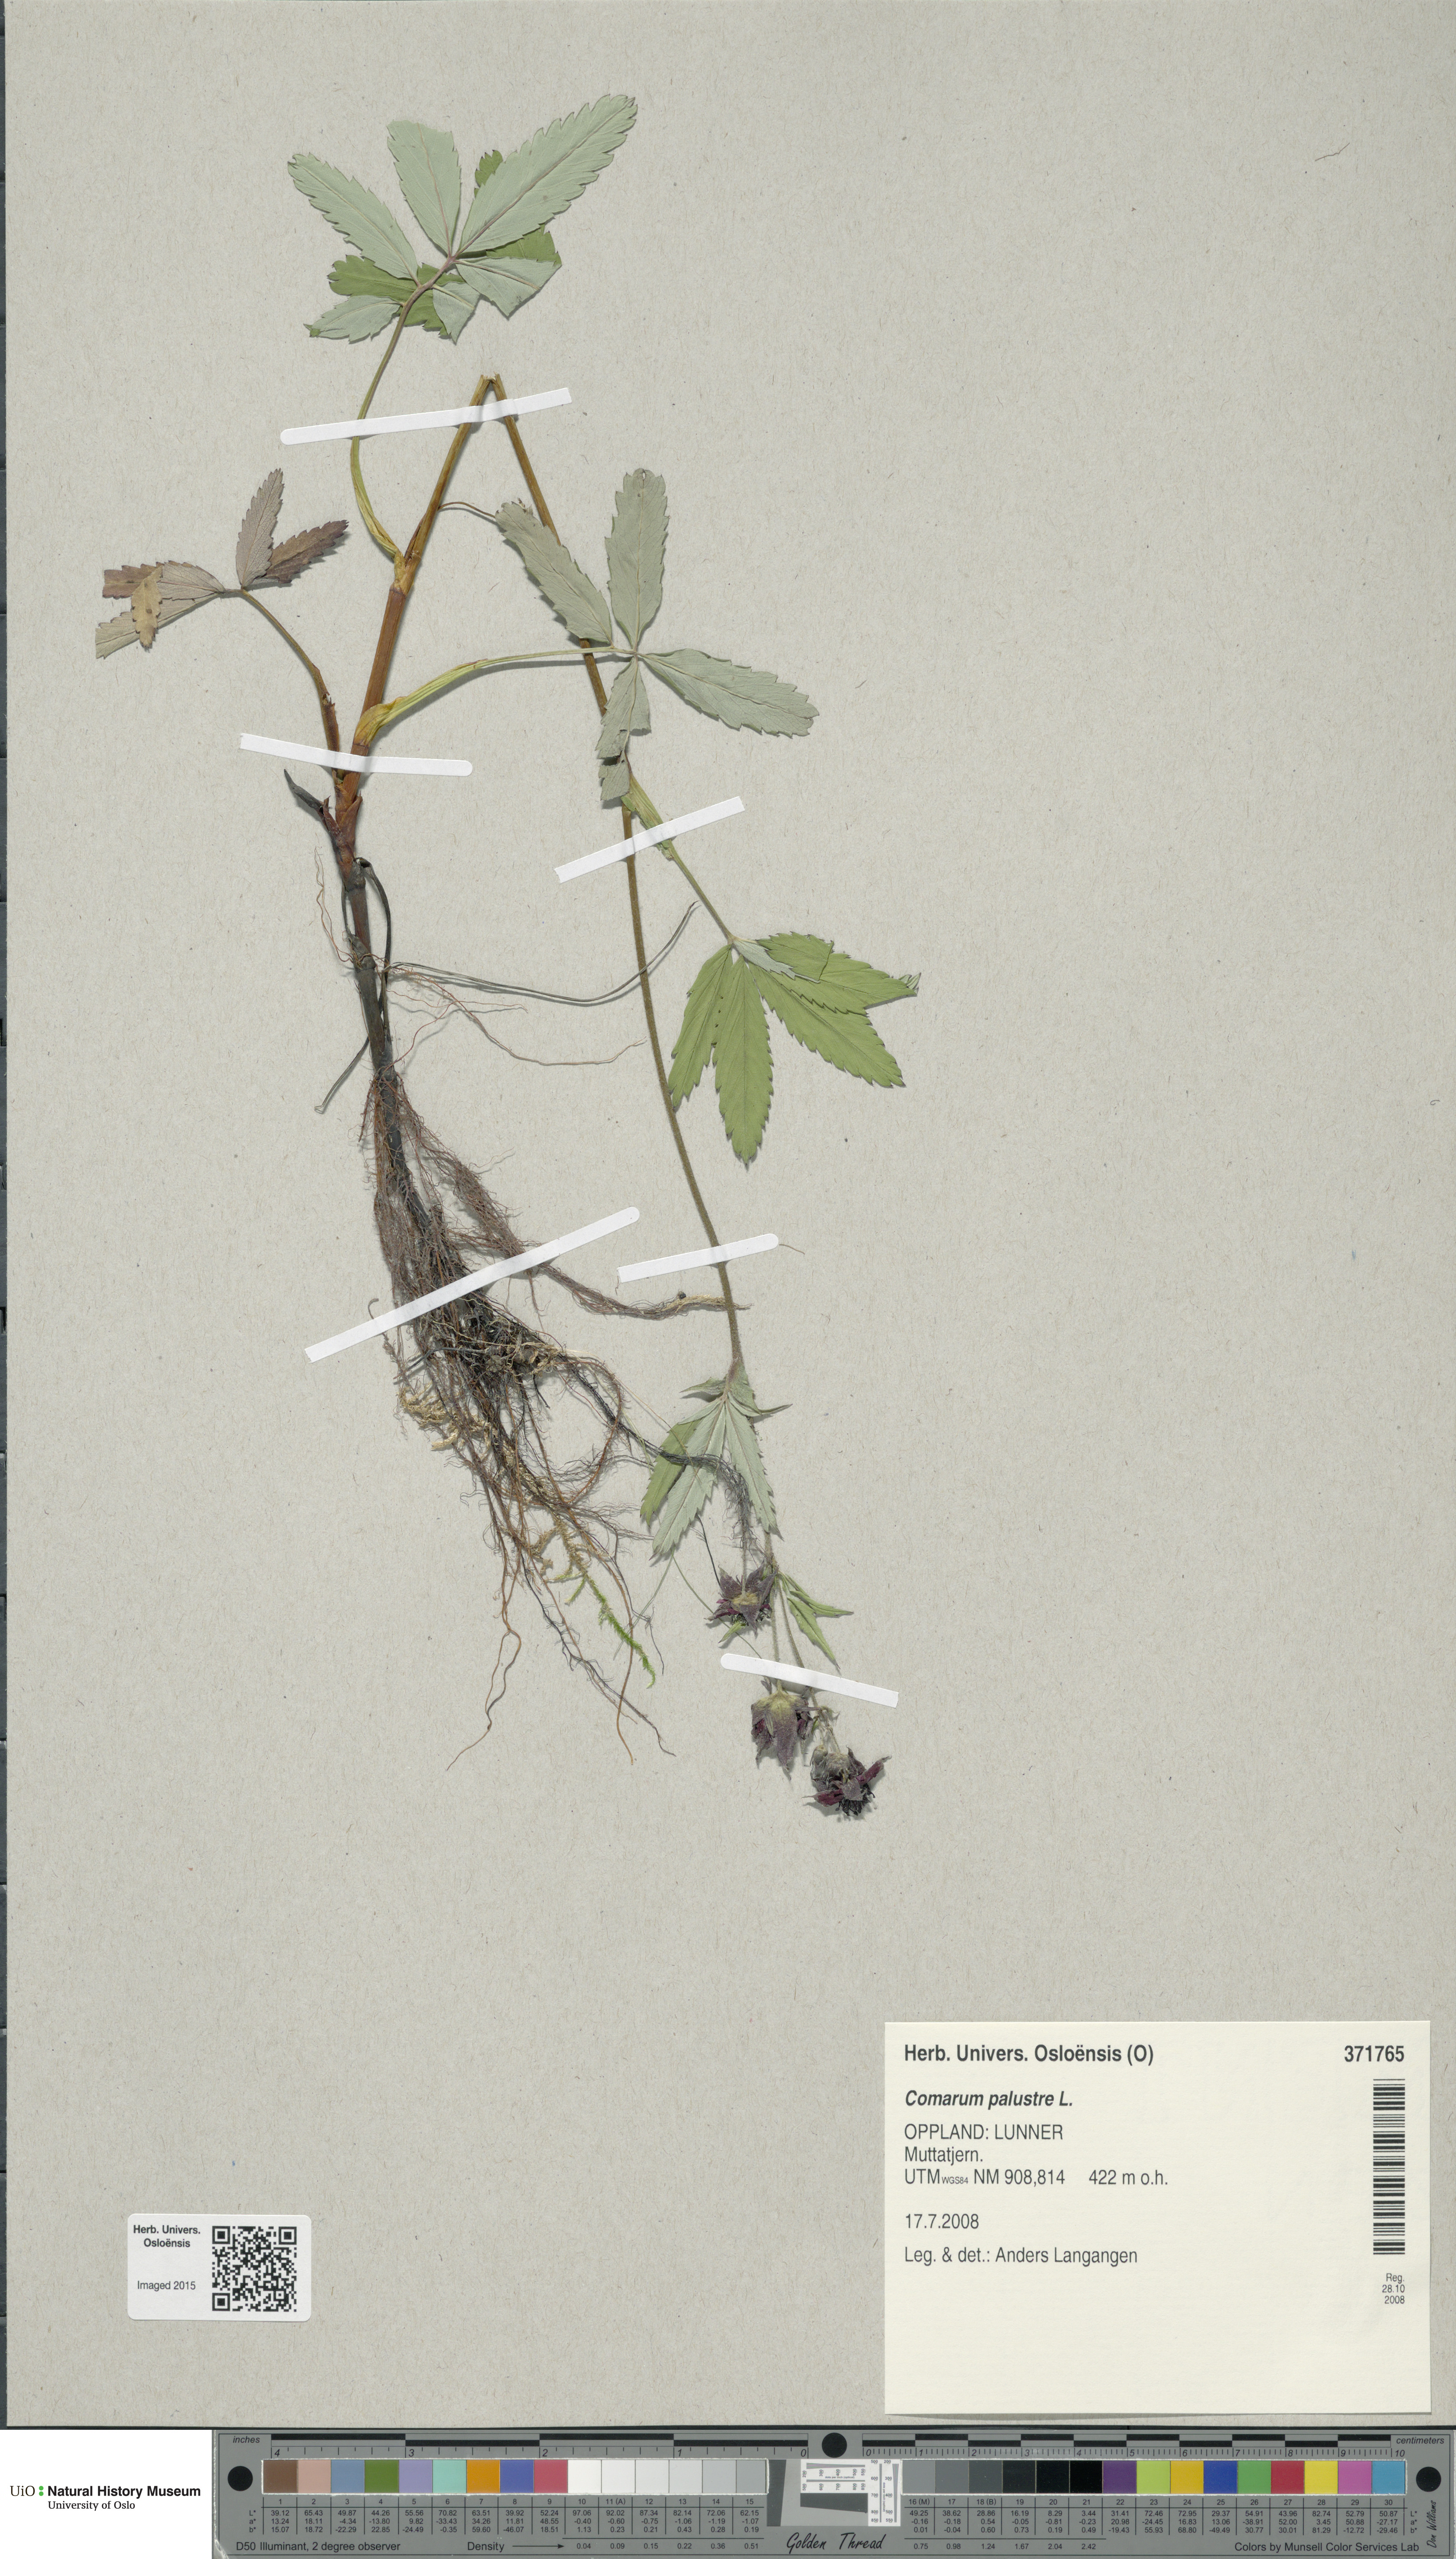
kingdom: Plantae
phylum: Tracheophyta
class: Magnoliopsida
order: Rosales
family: Rosaceae
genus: Comarum
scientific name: Comarum palustre
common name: Marsh cinquefoil
